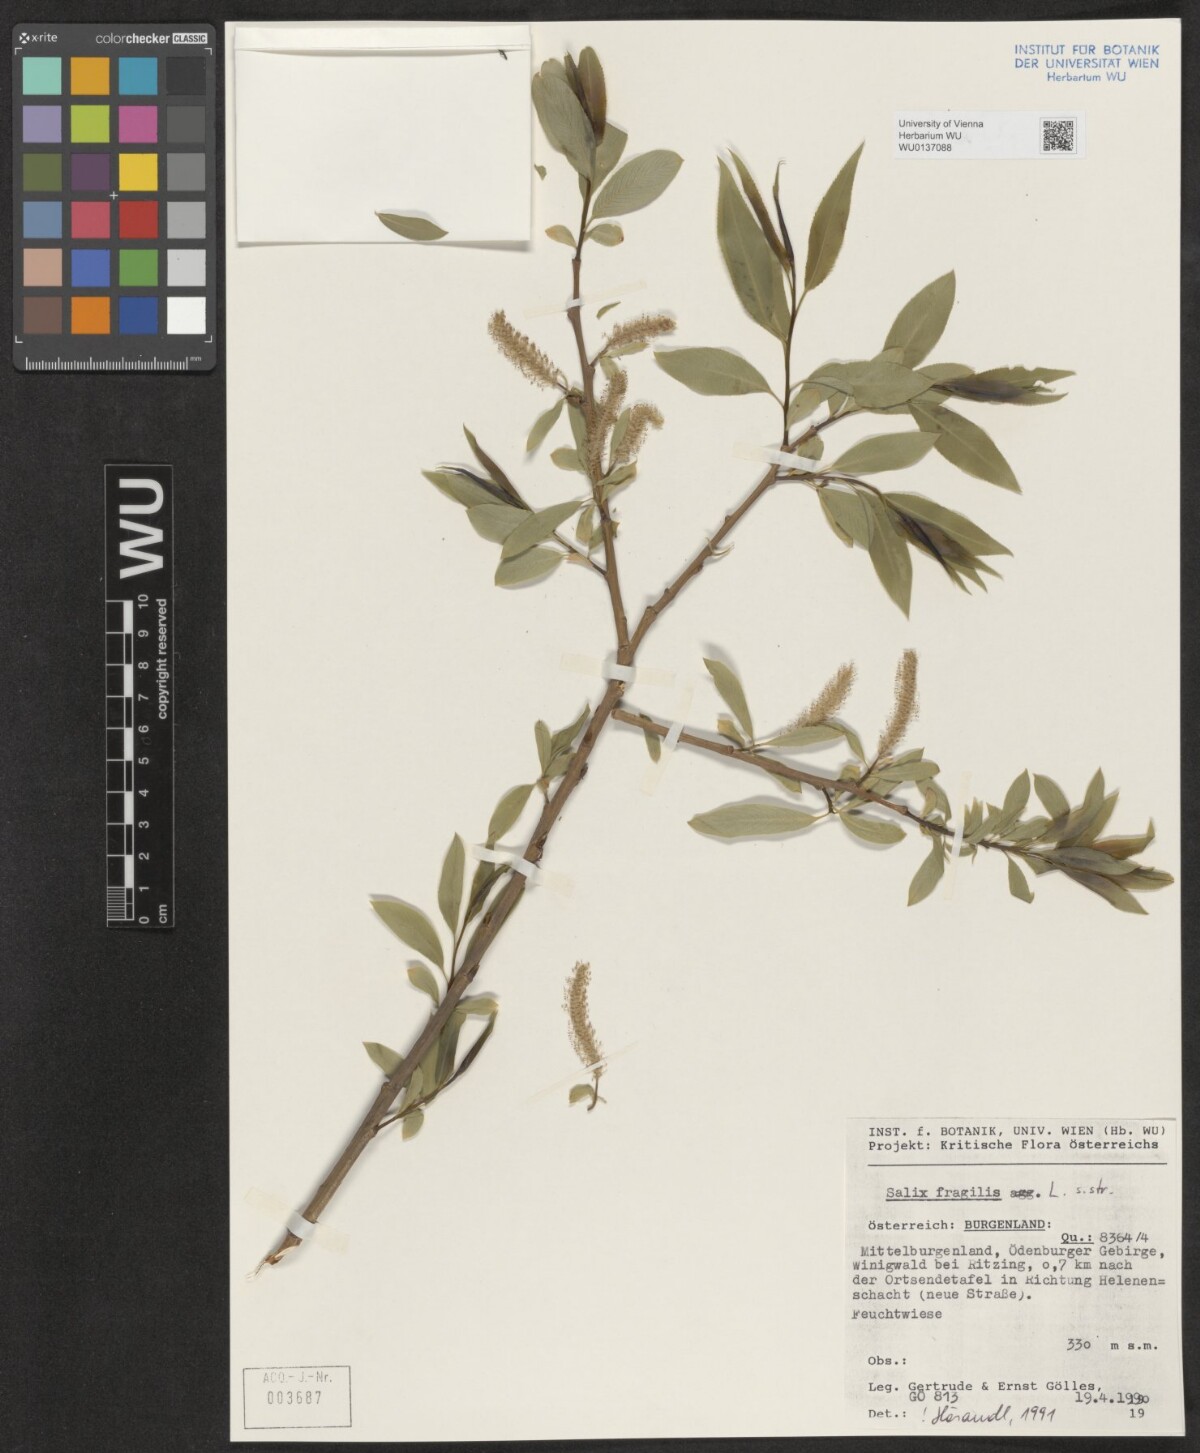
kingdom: Plantae
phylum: Tracheophyta
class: Magnoliopsida
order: Malpighiales
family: Salicaceae
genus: Salix
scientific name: Salix fragilis
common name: Crack willow
